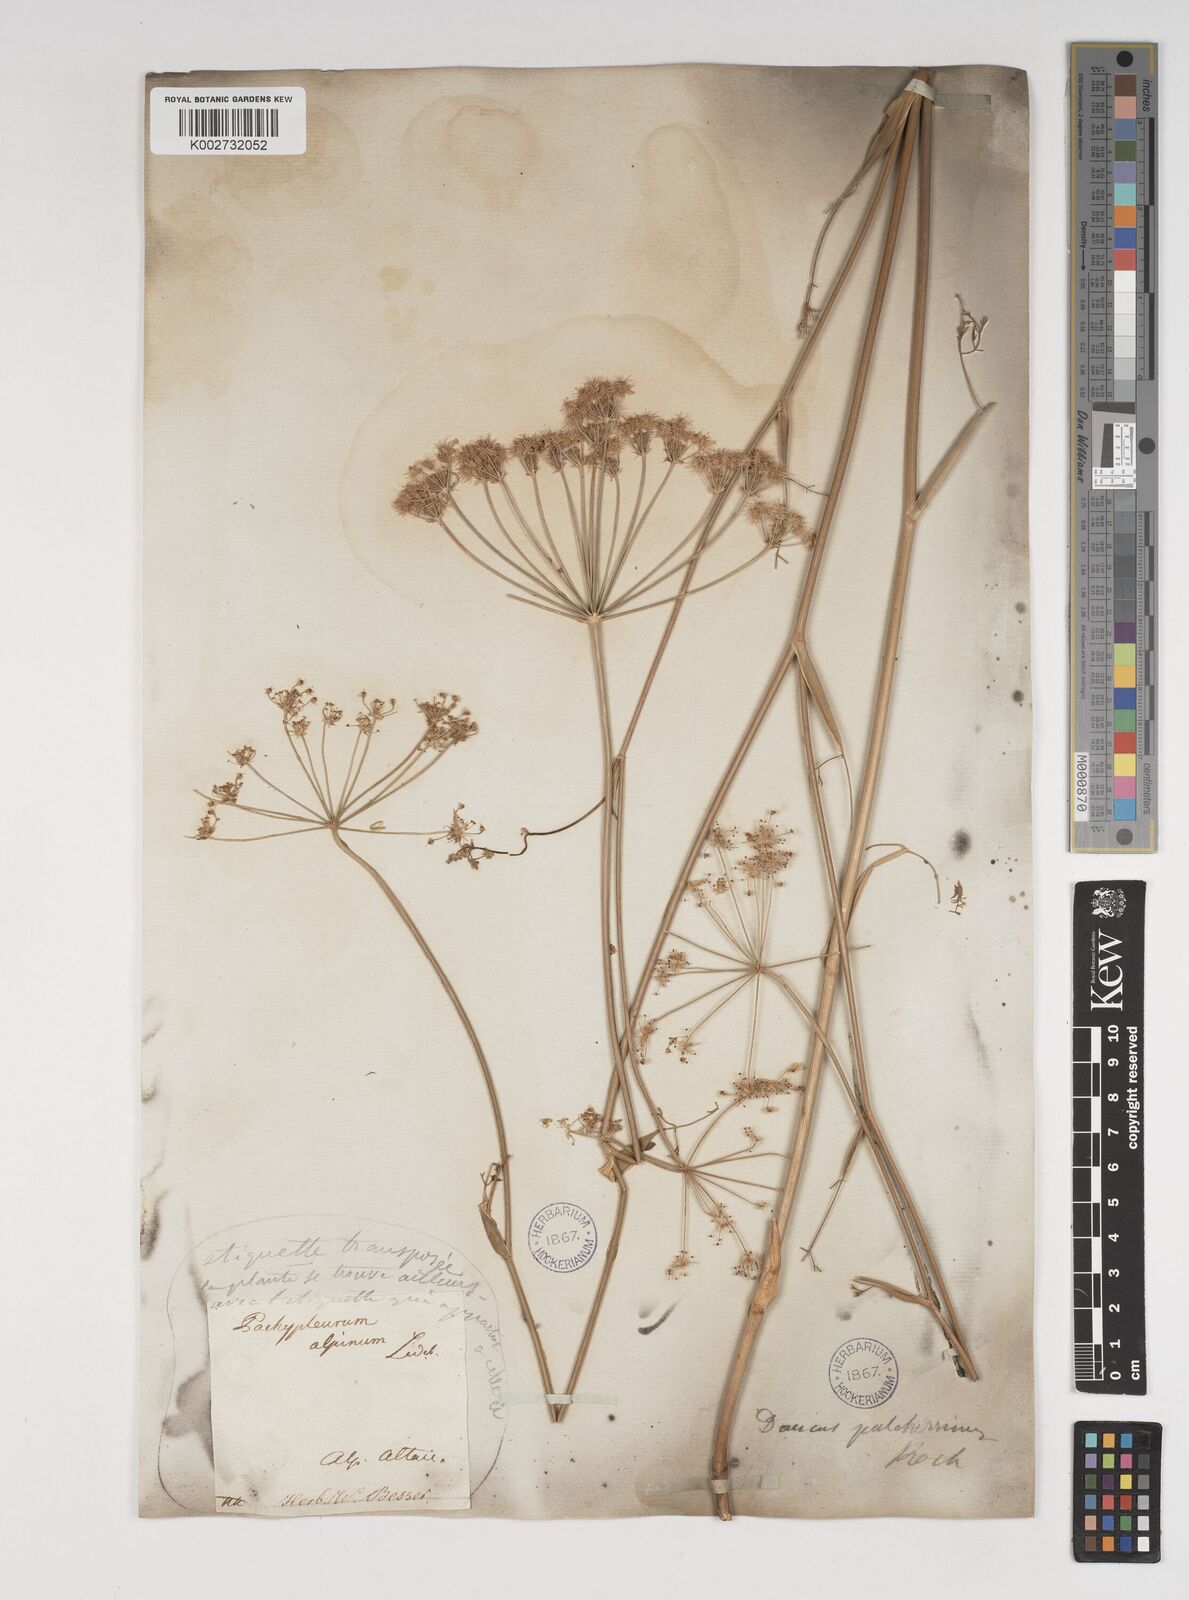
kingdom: Plantae
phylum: Tracheophyta
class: Magnoliopsida
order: Apiales
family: Apiaceae
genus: Astrodaucus
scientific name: Astrodaucus
